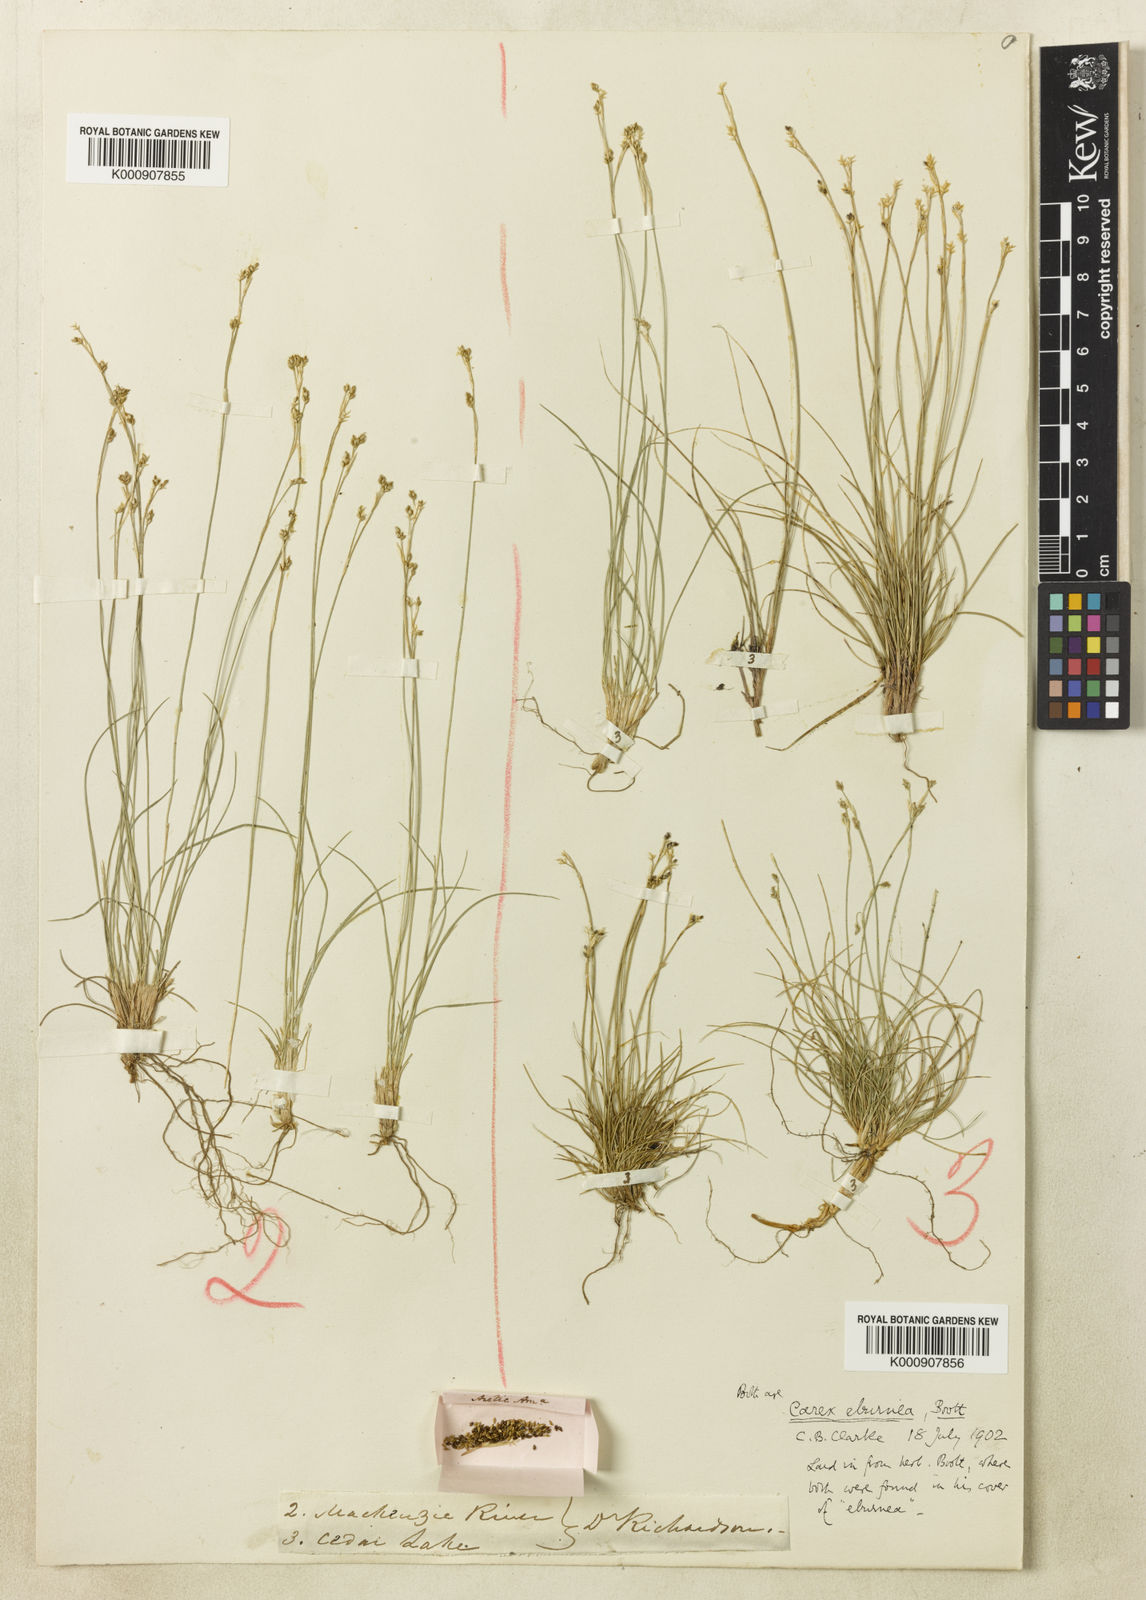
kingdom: Plantae
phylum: Tracheophyta
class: Liliopsida
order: Poales
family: Cyperaceae
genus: Carex
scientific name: Carex eburnea
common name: Bristle-leaved sedge
